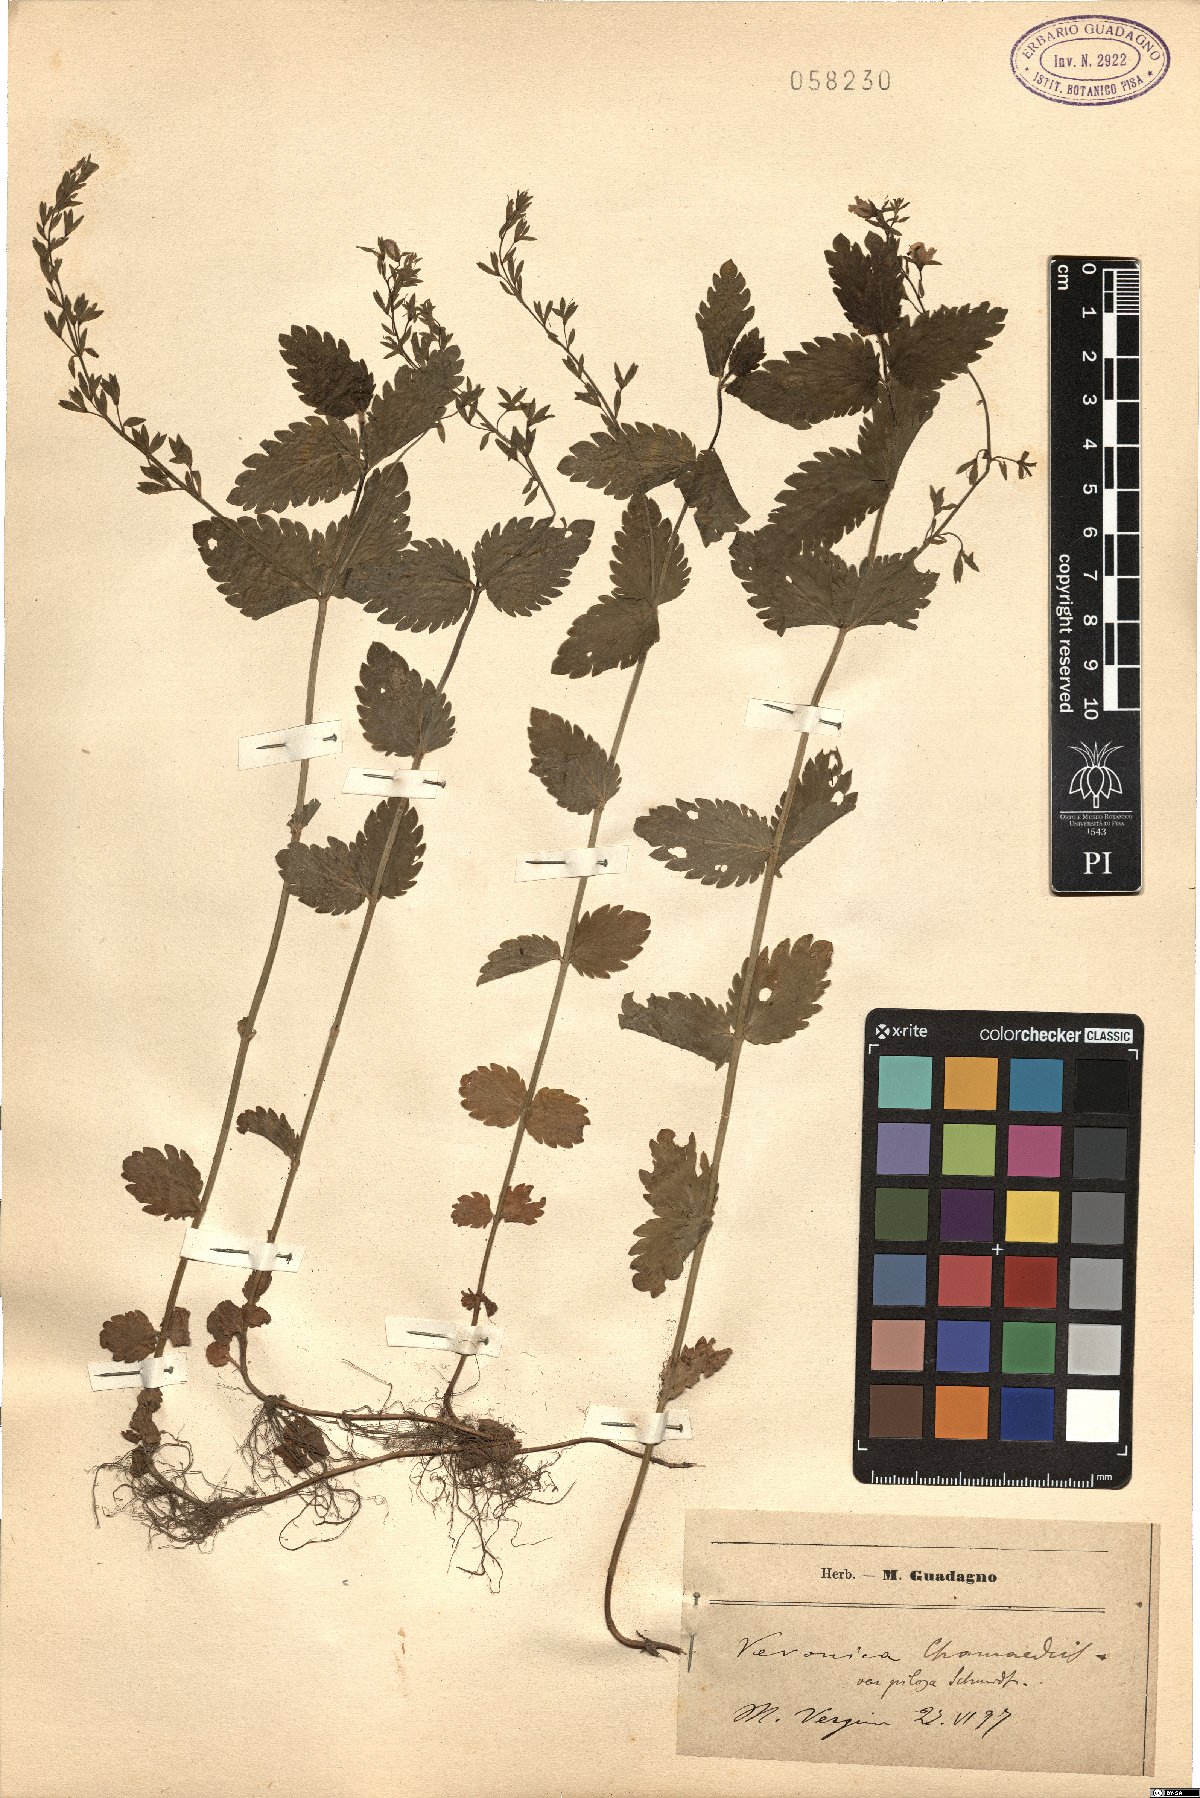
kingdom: Plantae
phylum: Tracheophyta
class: Magnoliopsida
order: Lamiales
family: Plantaginaceae
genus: Veronica
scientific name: Veronica chamaedrys
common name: Germander speedwell
